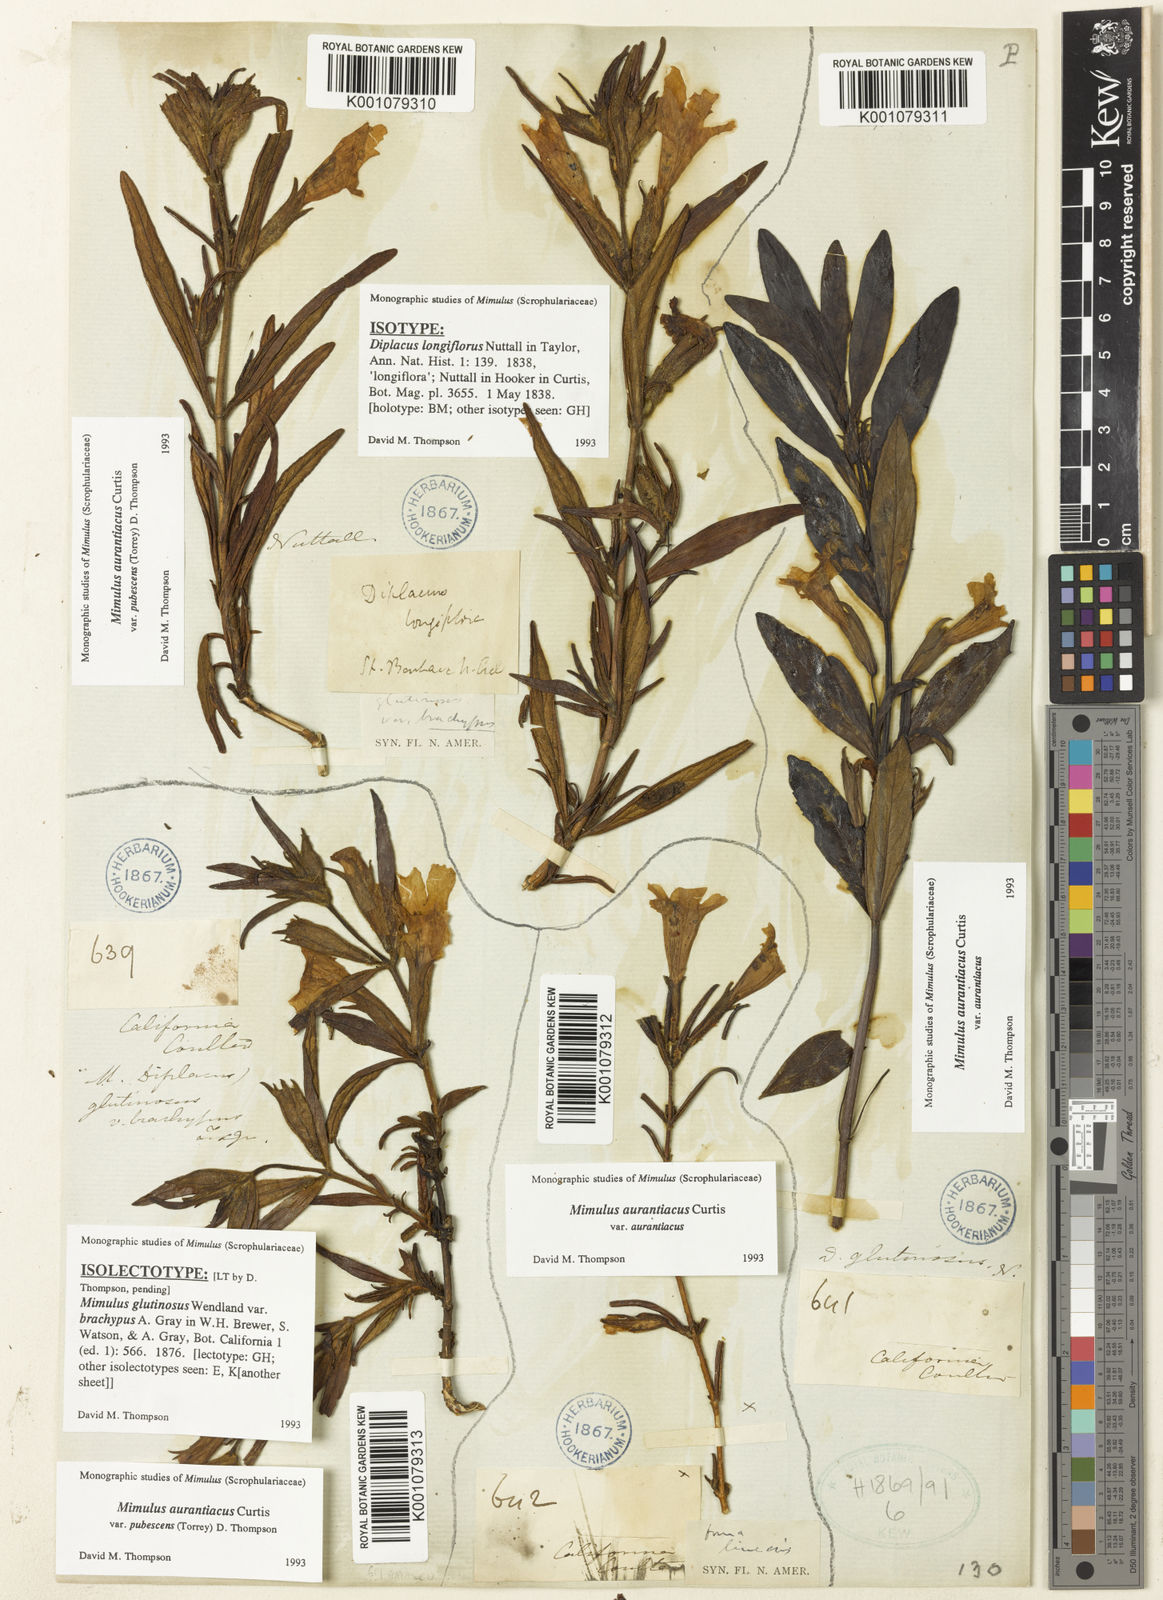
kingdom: Plantae
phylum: Tracheophyta
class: Magnoliopsida
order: Lamiales
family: Phrymaceae
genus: Diplacus
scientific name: Diplacus longiflorus
